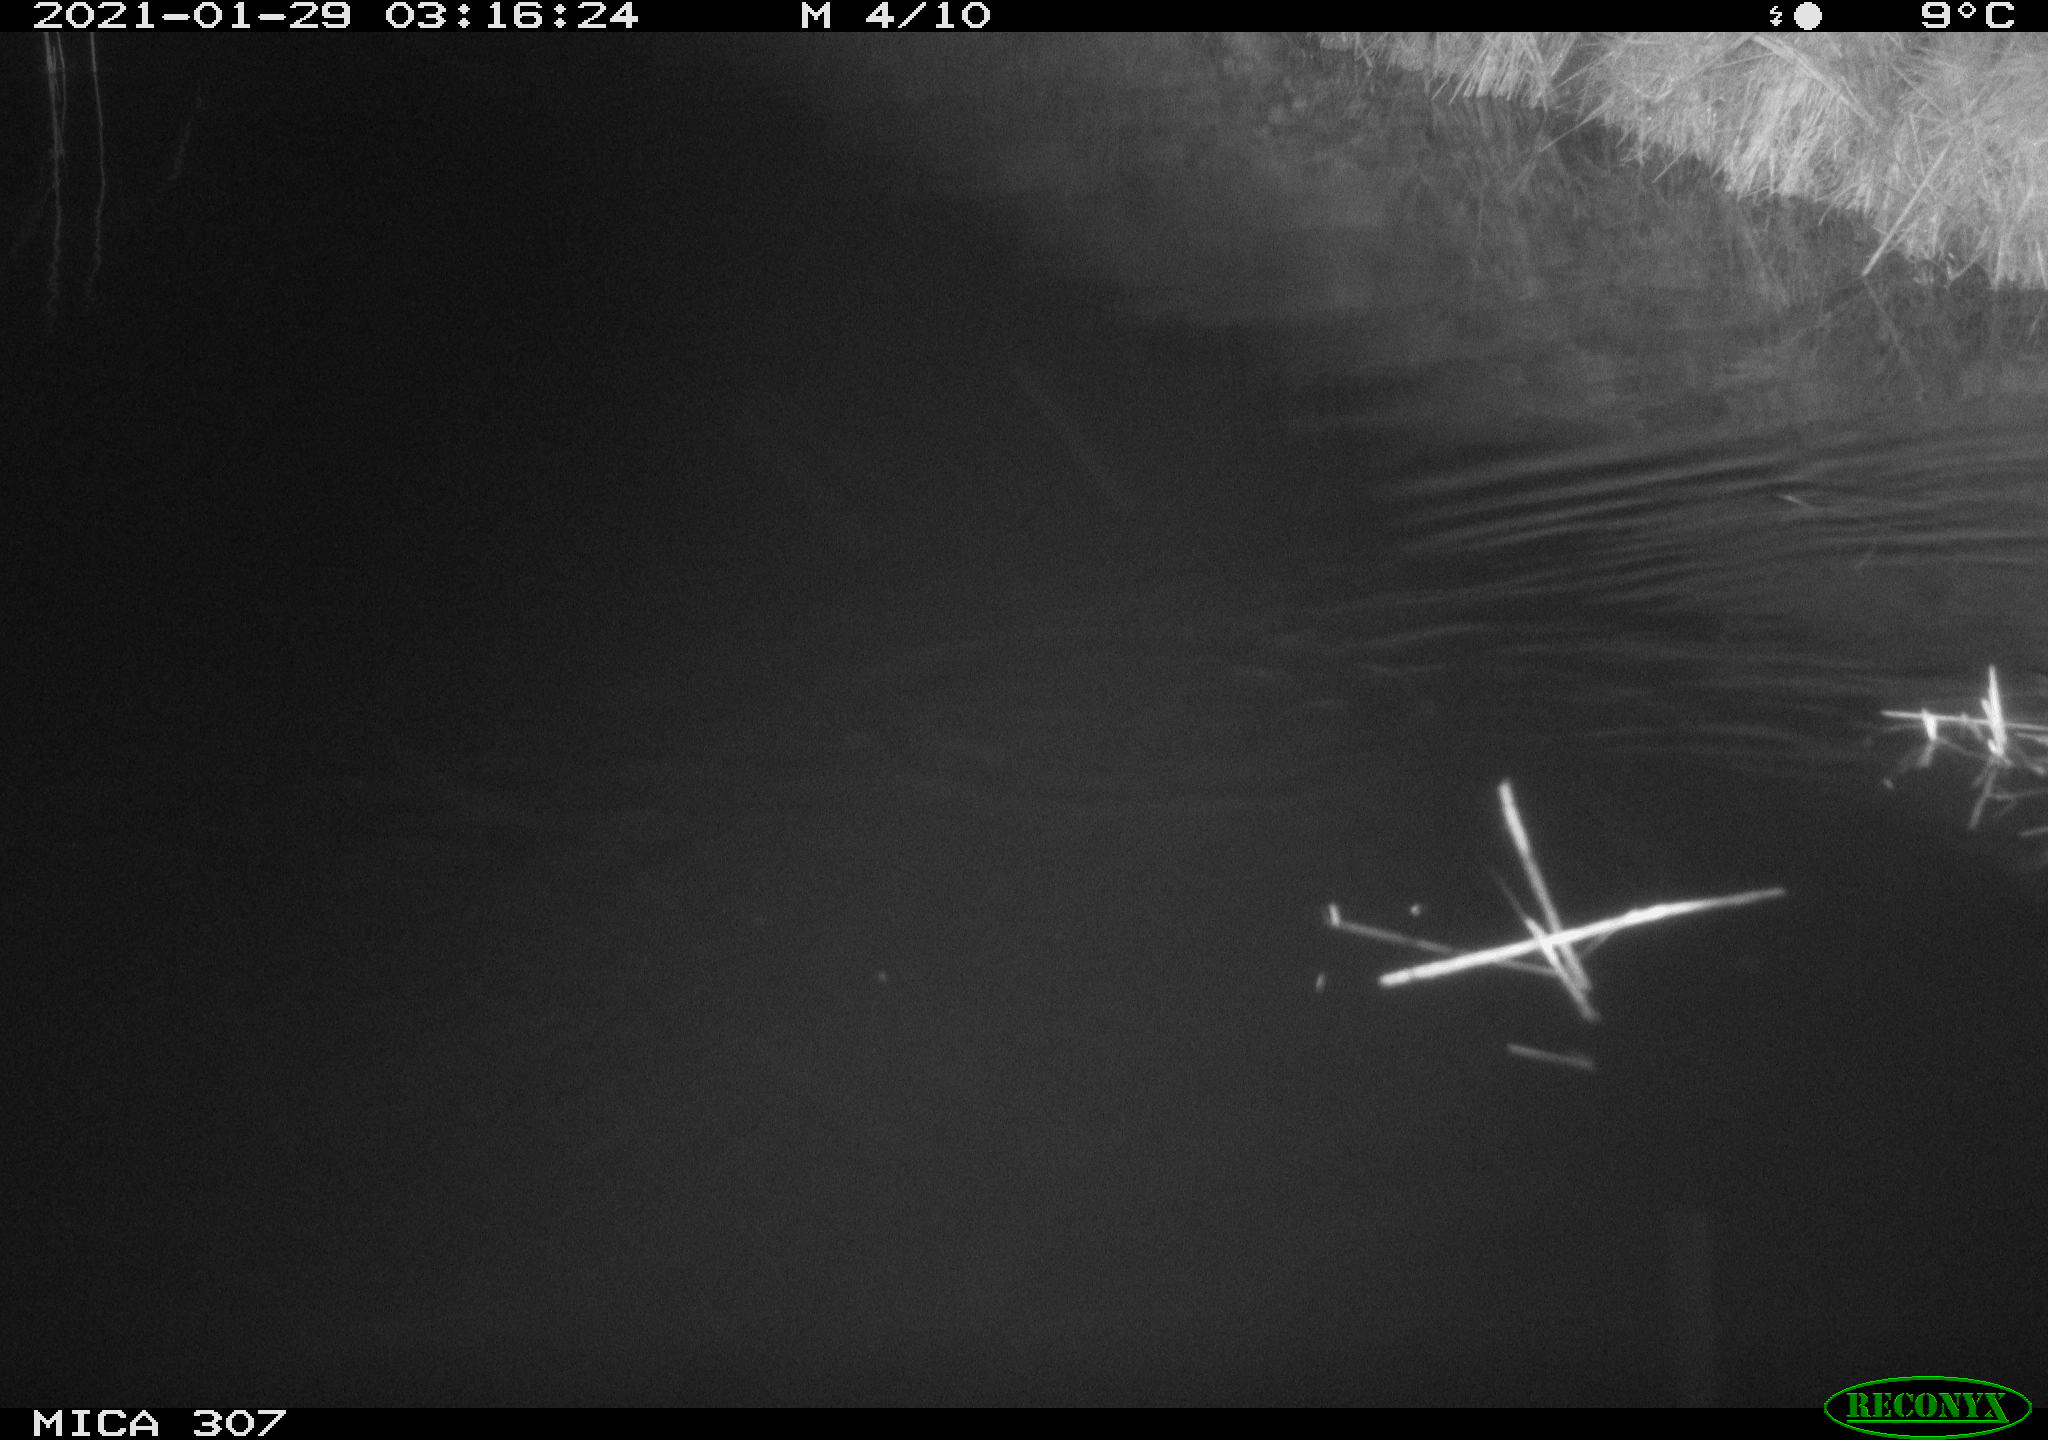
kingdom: Animalia
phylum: Chordata
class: Mammalia
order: Rodentia
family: Muridae
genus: Rattus
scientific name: Rattus norvegicus
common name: Brown rat
